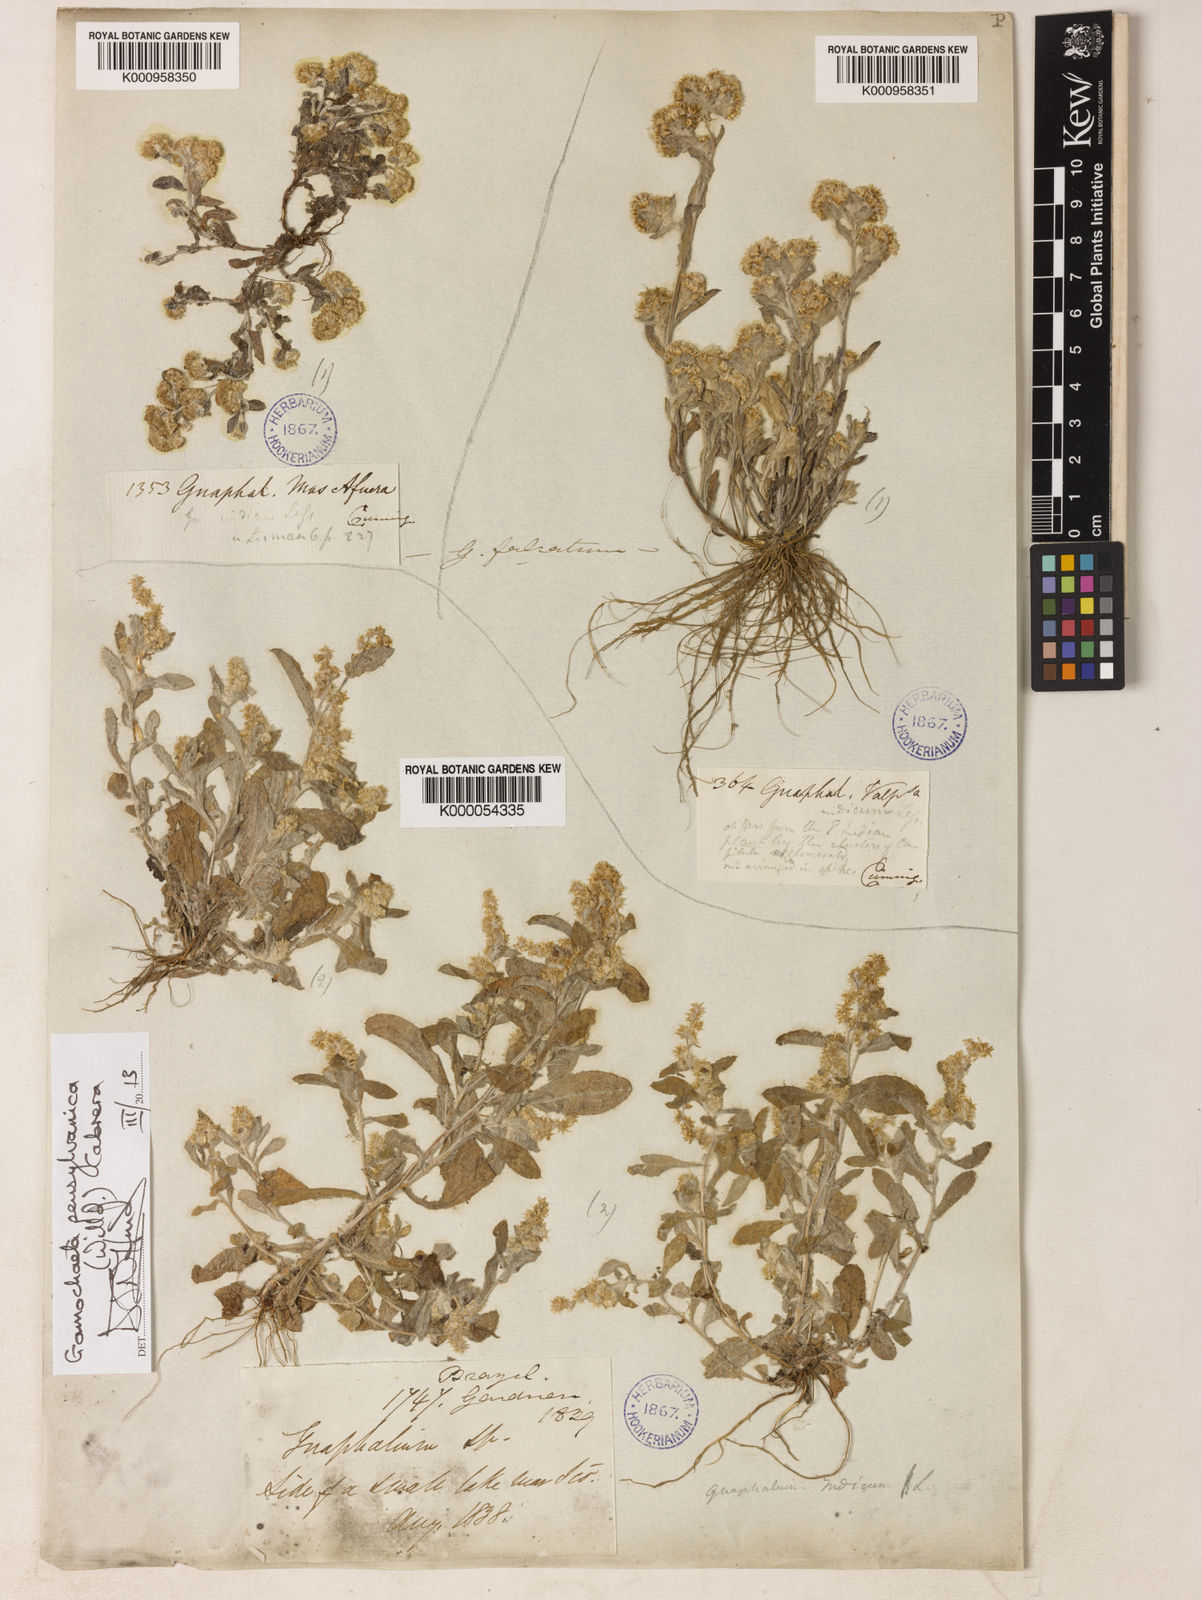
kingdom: Plantae
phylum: Tracheophyta
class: Magnoliopsida
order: Asterales
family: Asteraceae
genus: Gamochaeta
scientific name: Gamochaeta pensylvanica
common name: Pennsylvania everlasting
